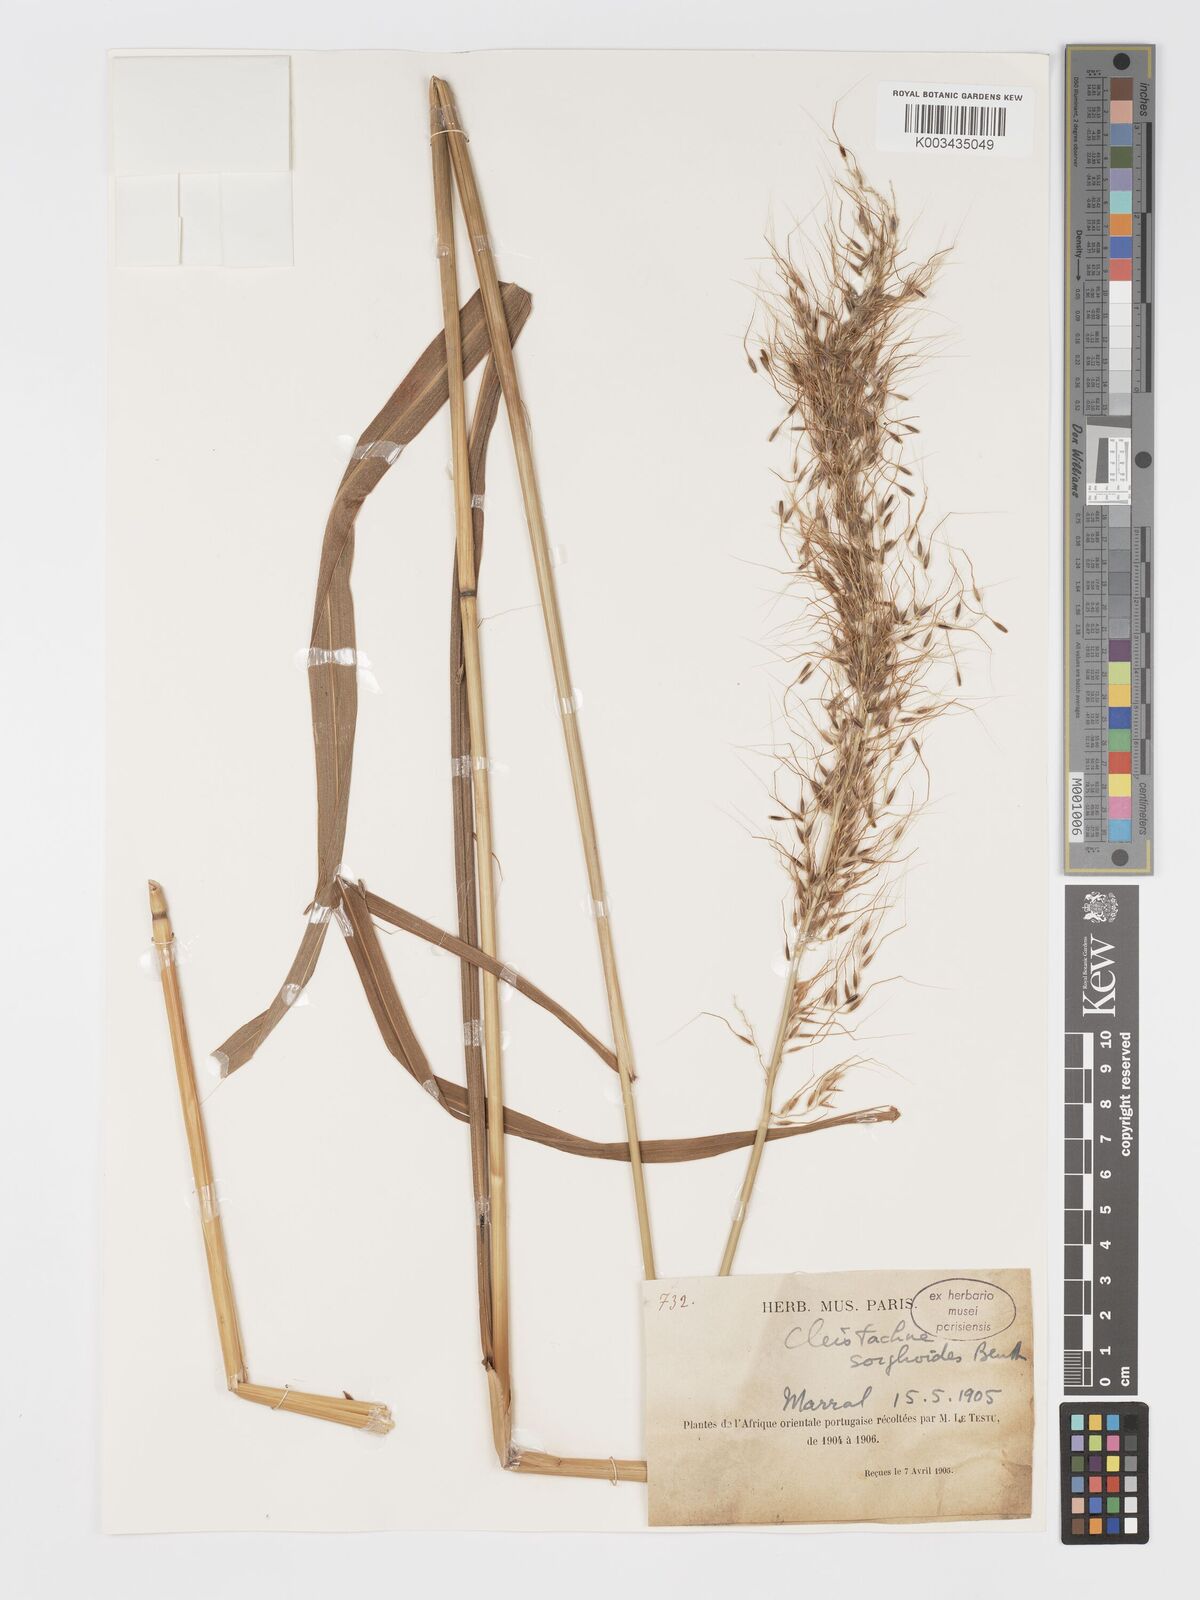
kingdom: Plantae
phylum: Tracheophyta
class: Liliopsida
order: Poales
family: Poaceae
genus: Cleistachne
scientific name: Cleistachne sorghoides
